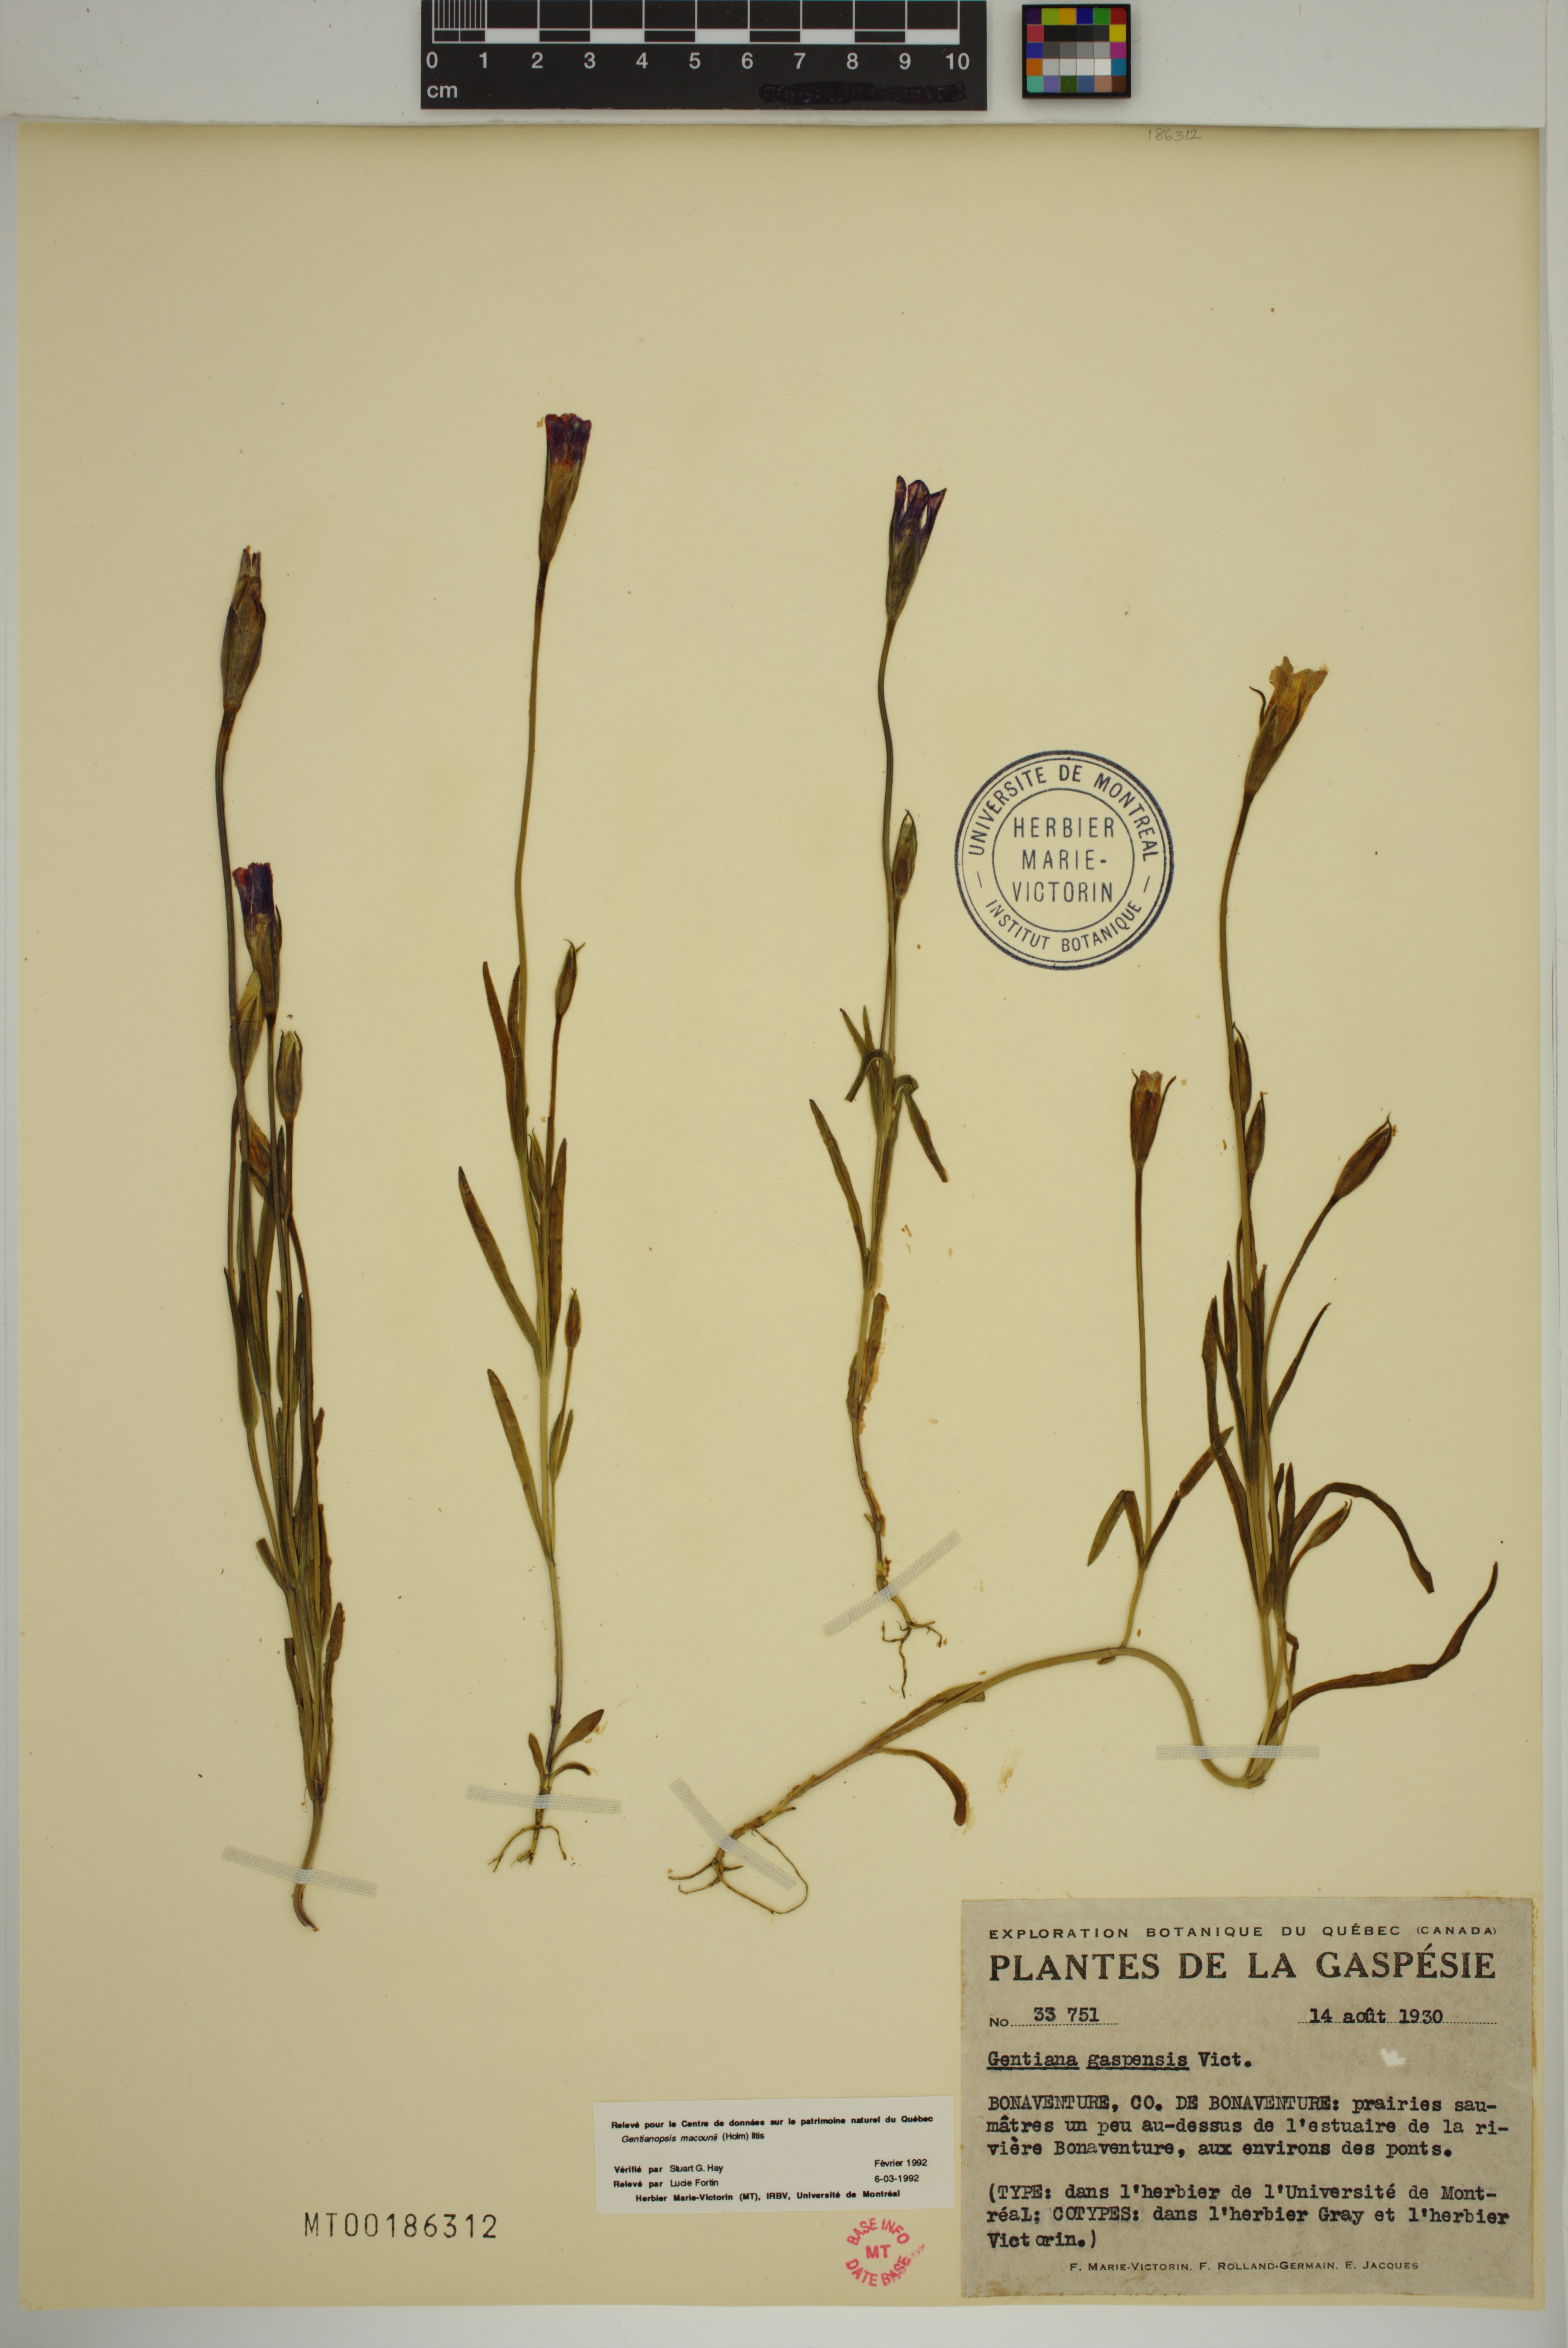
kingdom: Plantae
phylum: Tracheophyta
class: Magnoliopsida
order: Gentianales
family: Gentianaceae
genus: Gentianopsis
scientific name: Gentianopsis macounii
